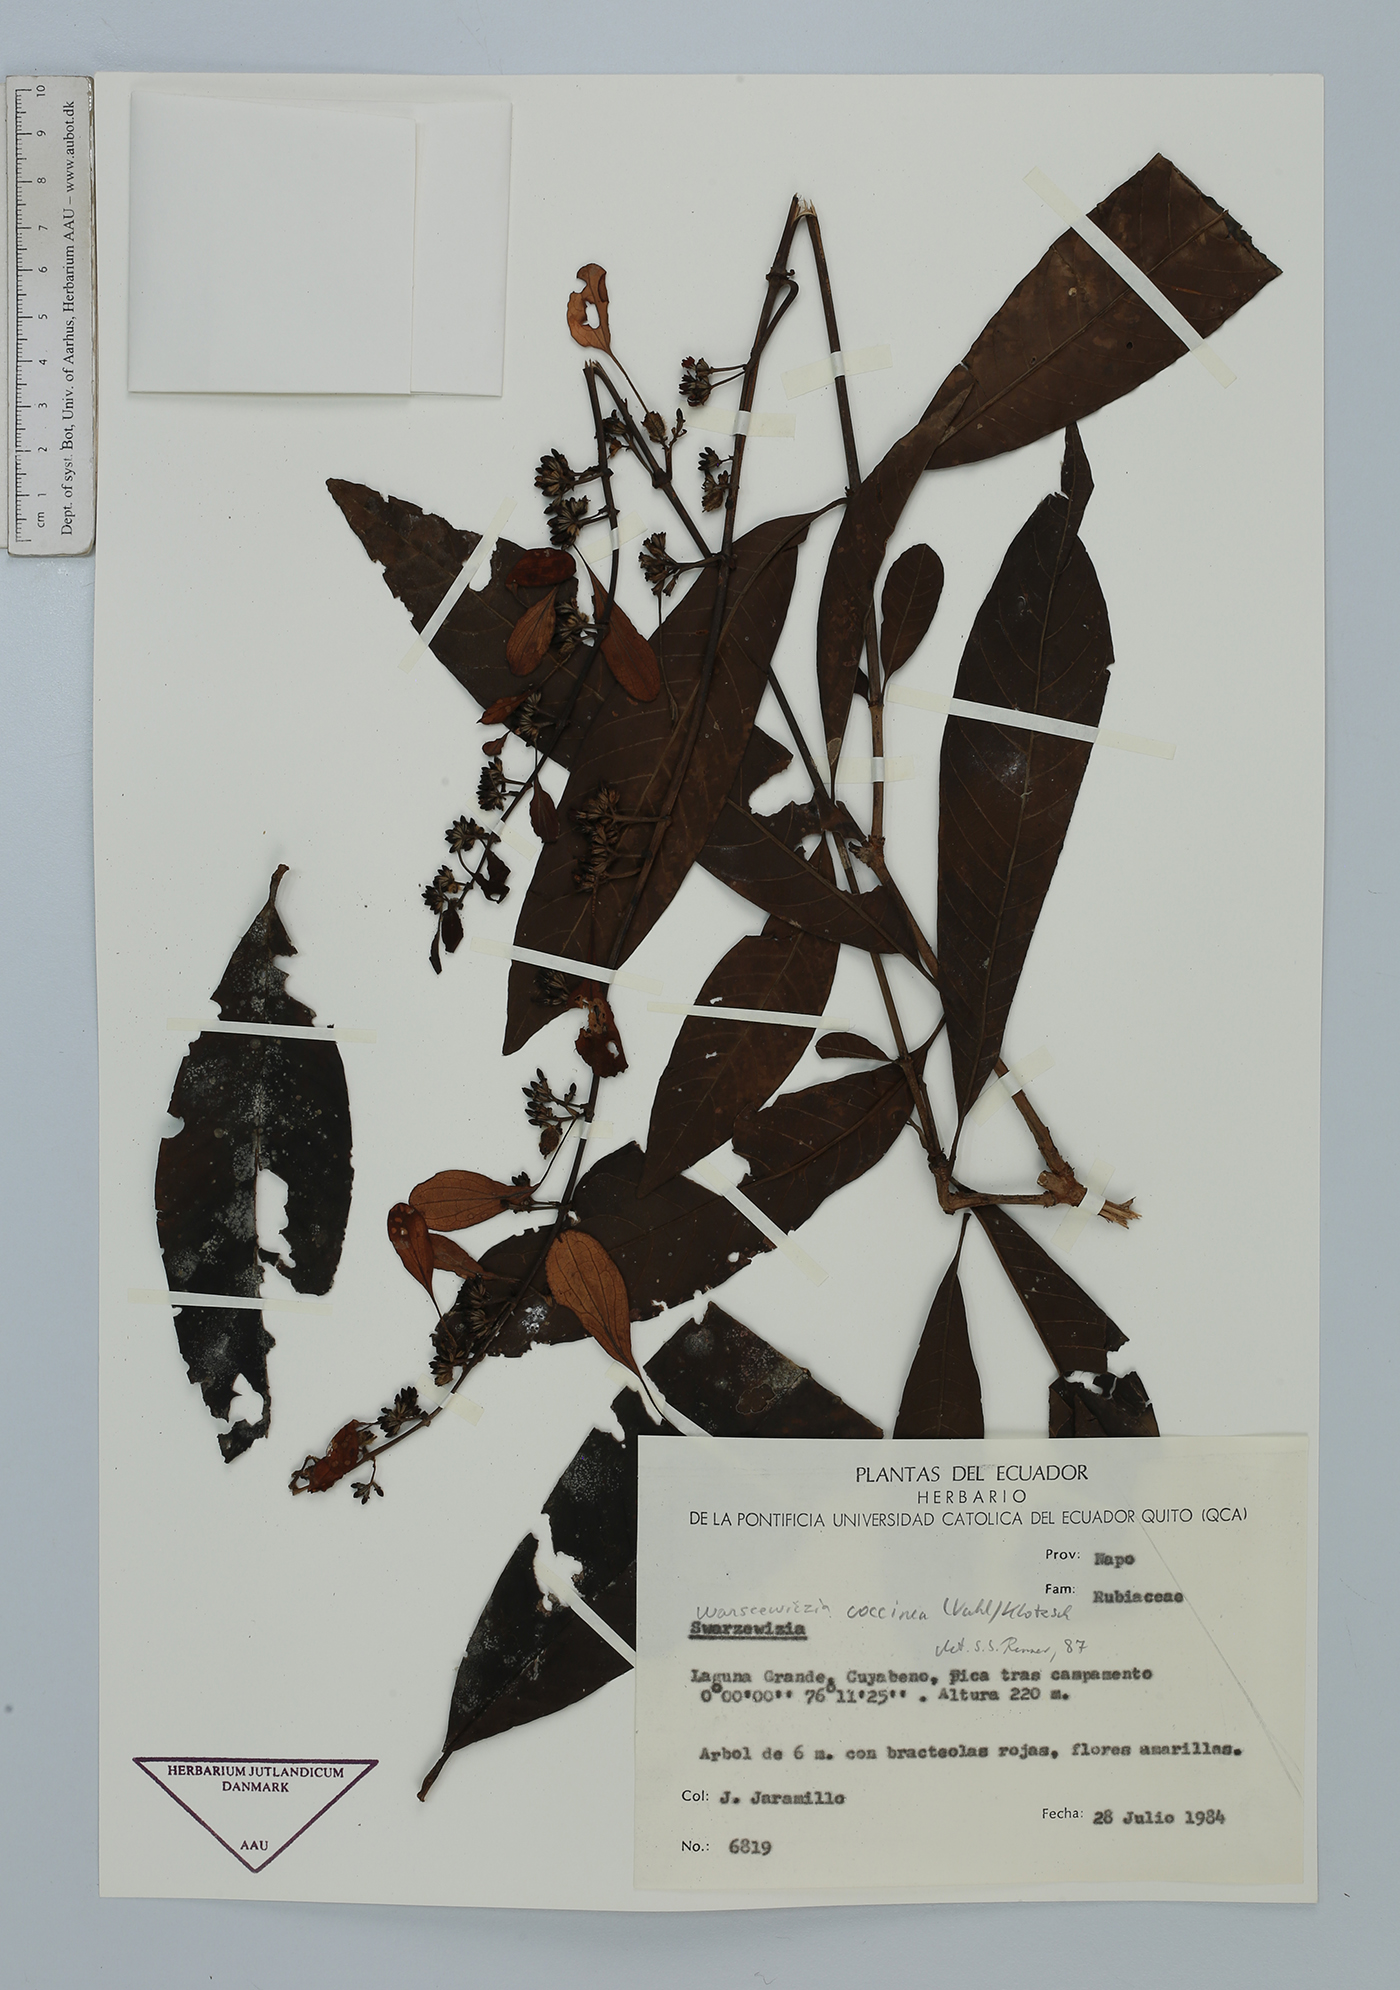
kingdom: Plantae
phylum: Tracheophyta
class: Magnoliopsida
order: Gentianales
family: Rubiaceae
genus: Warszewiczia
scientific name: Warszewiczia coccinea
